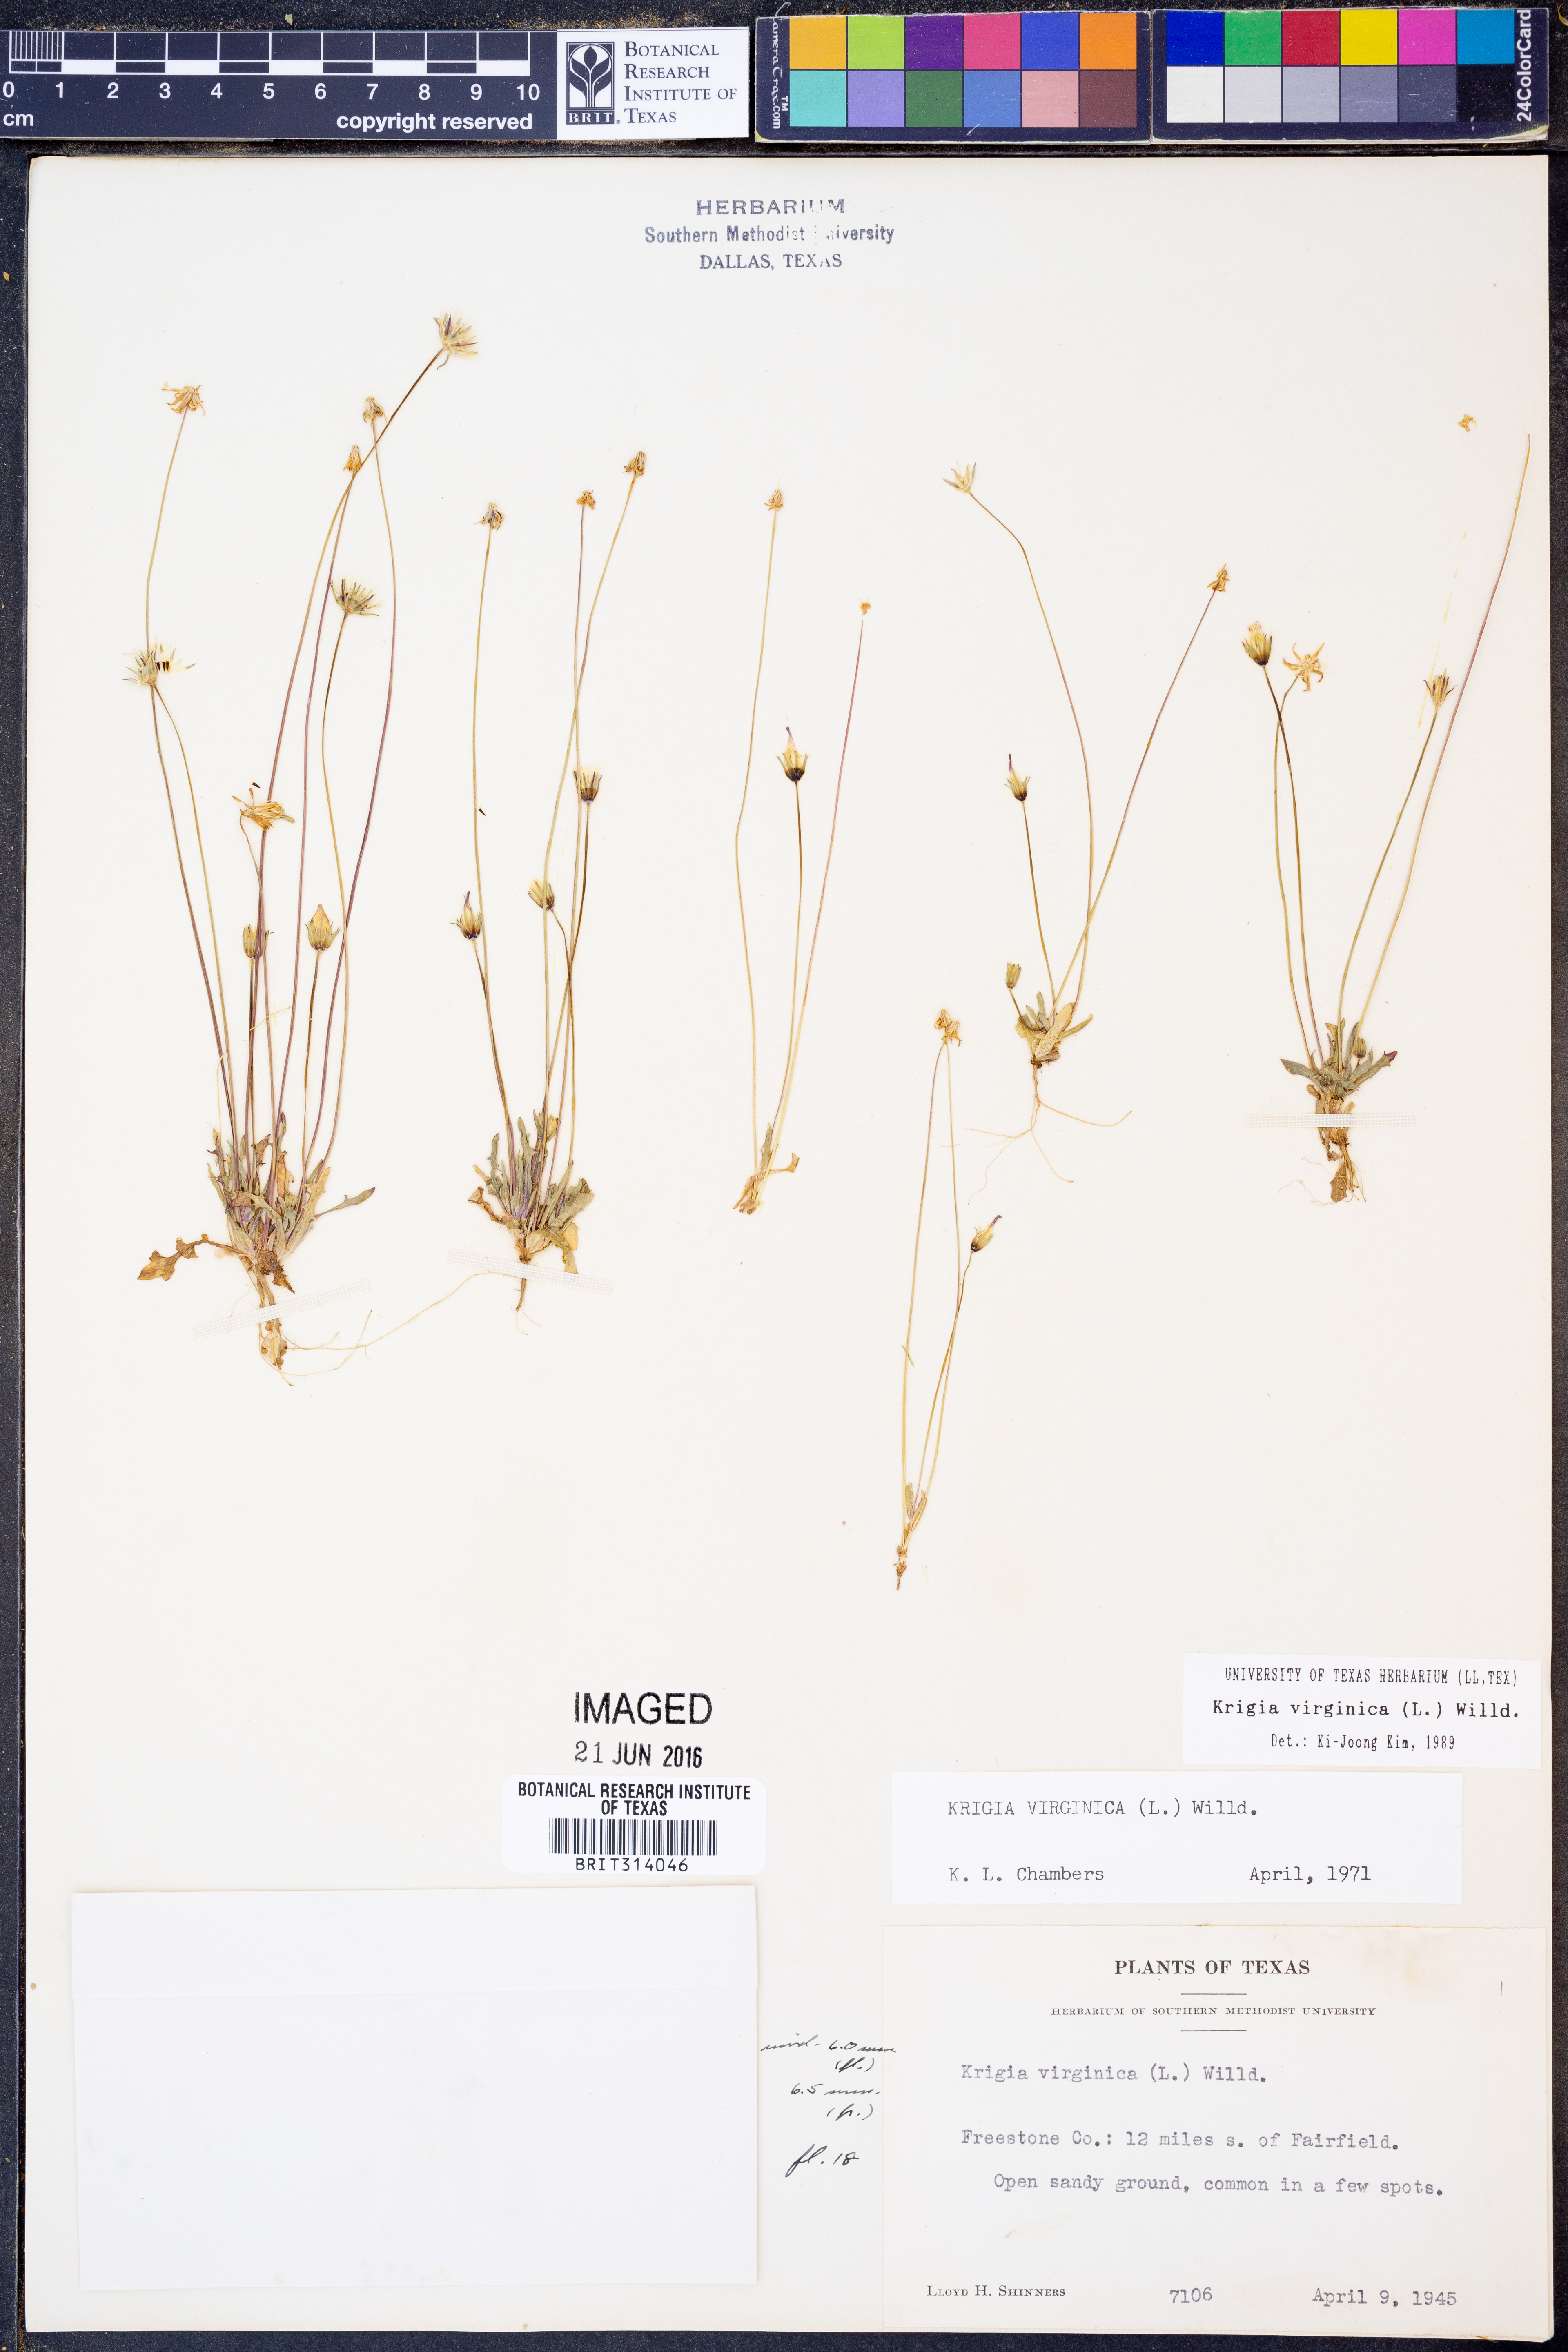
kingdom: Plantae
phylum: Tracheophyta
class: Magnoliopsida
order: Asterales
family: Asteraceae
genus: Krigia
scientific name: Krigia virginica
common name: Virginia dwarf-dandelion
